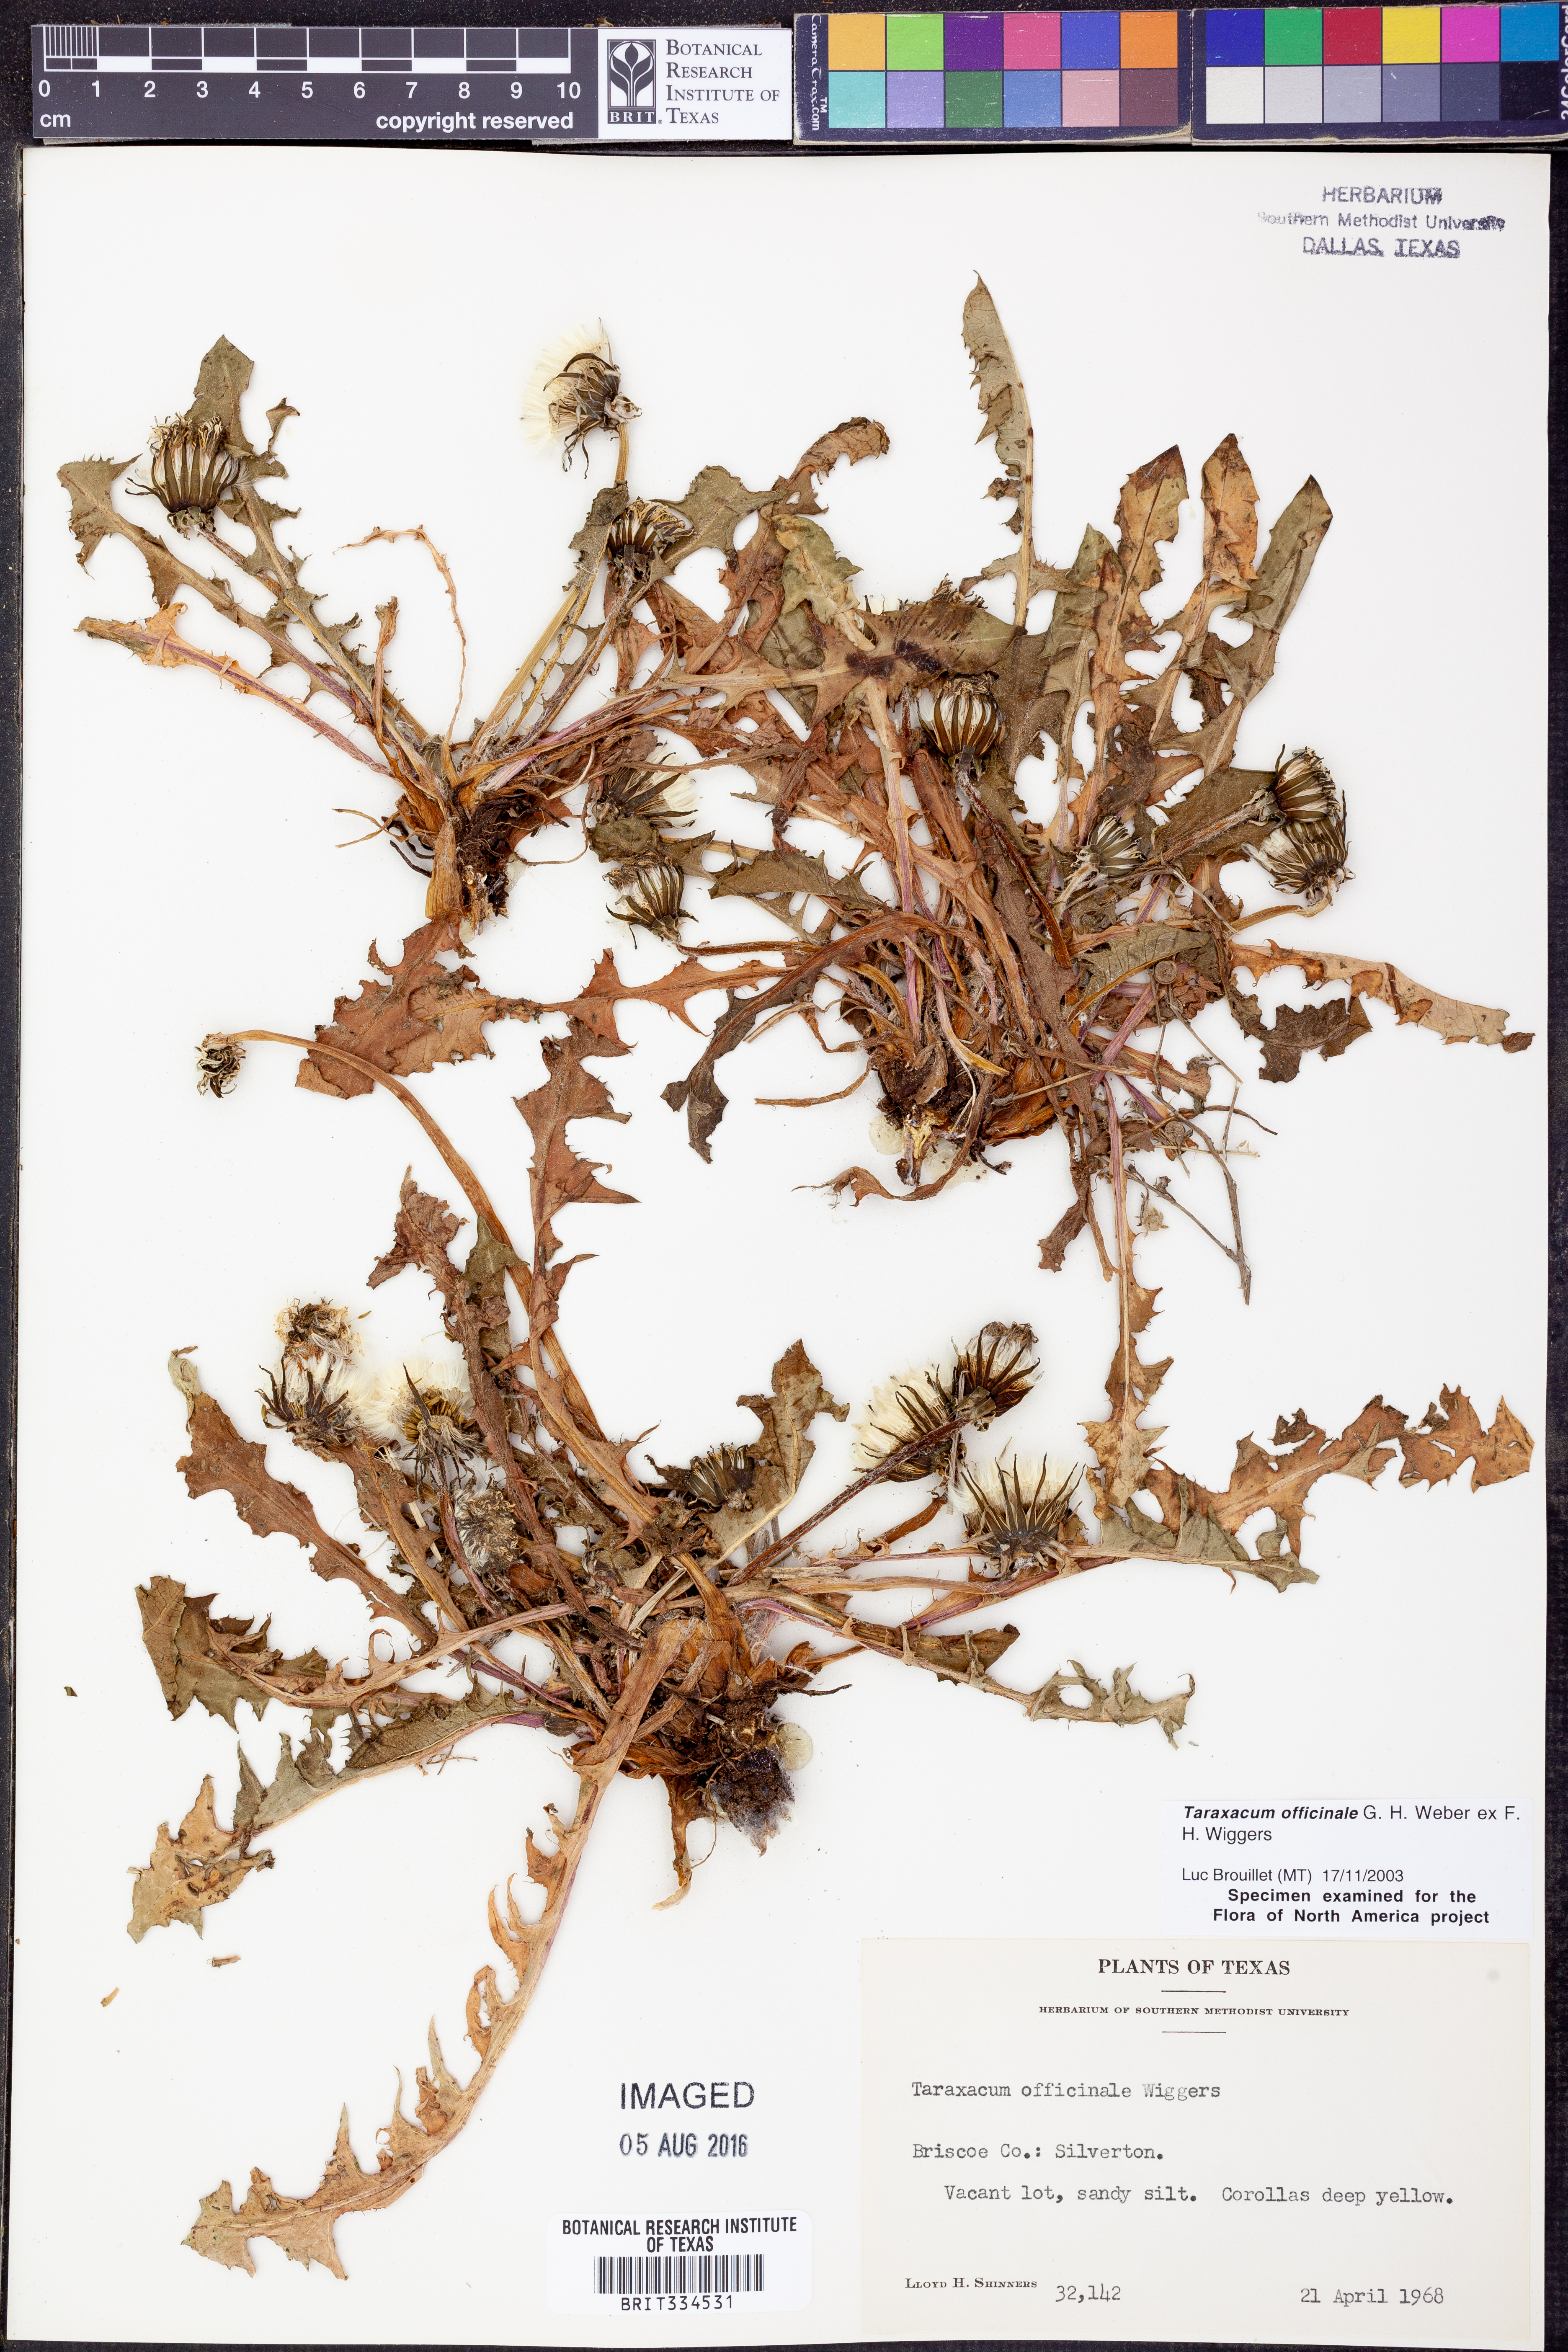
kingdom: Plantae
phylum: Tracheophyta
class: Magnoliopsida
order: Asterales
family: Asteraceae
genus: Taraxacum
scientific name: Taraxacum officinale
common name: Common dandelion
